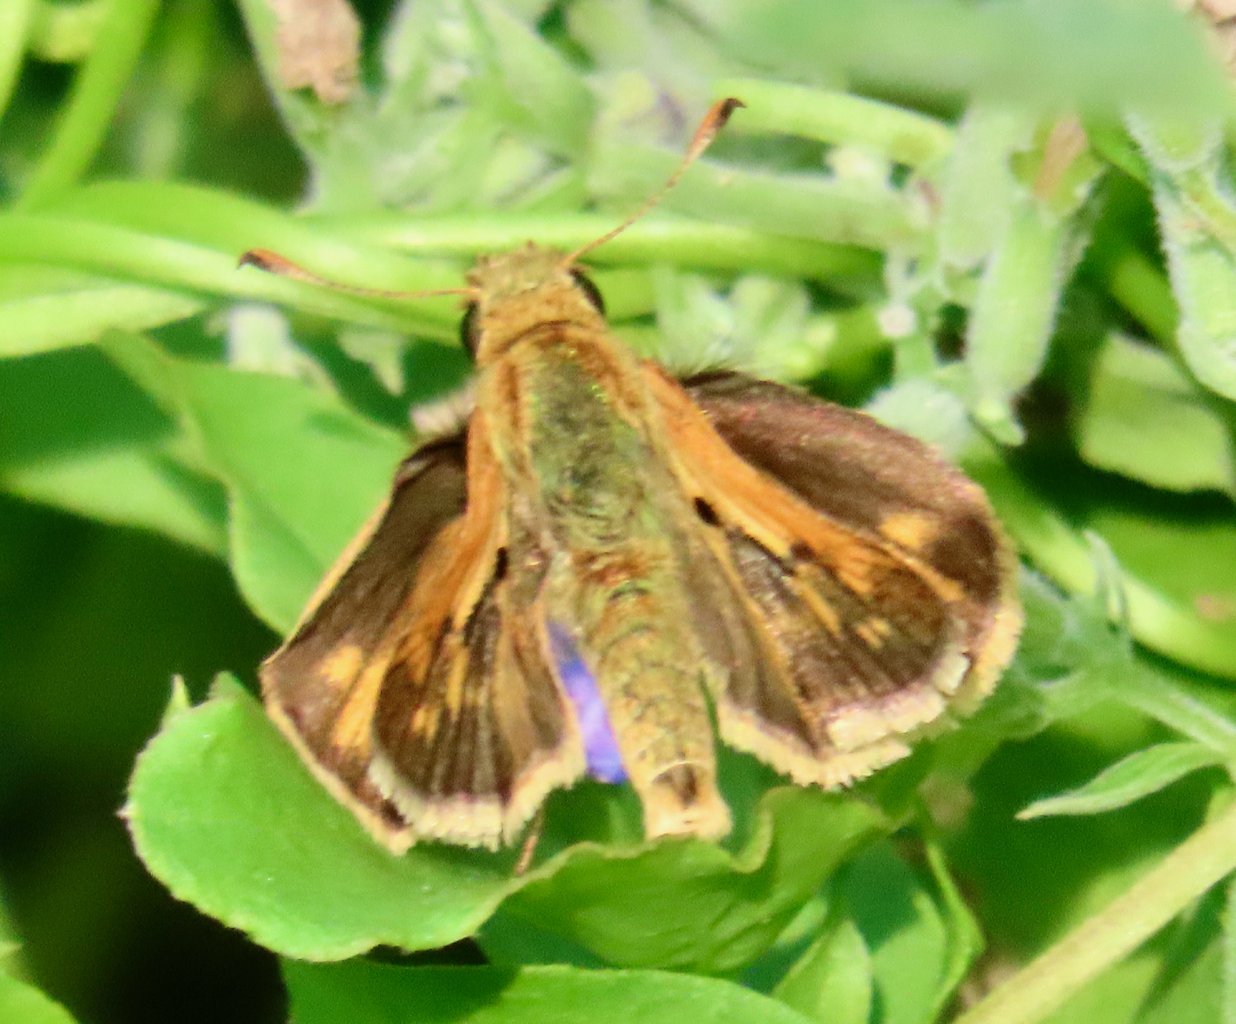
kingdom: Animalia
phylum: Arthropoda
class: Insecta
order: Lepidoptera
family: Hesperiidae
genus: Polites
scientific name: Polites coras
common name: Peck's Skipper
